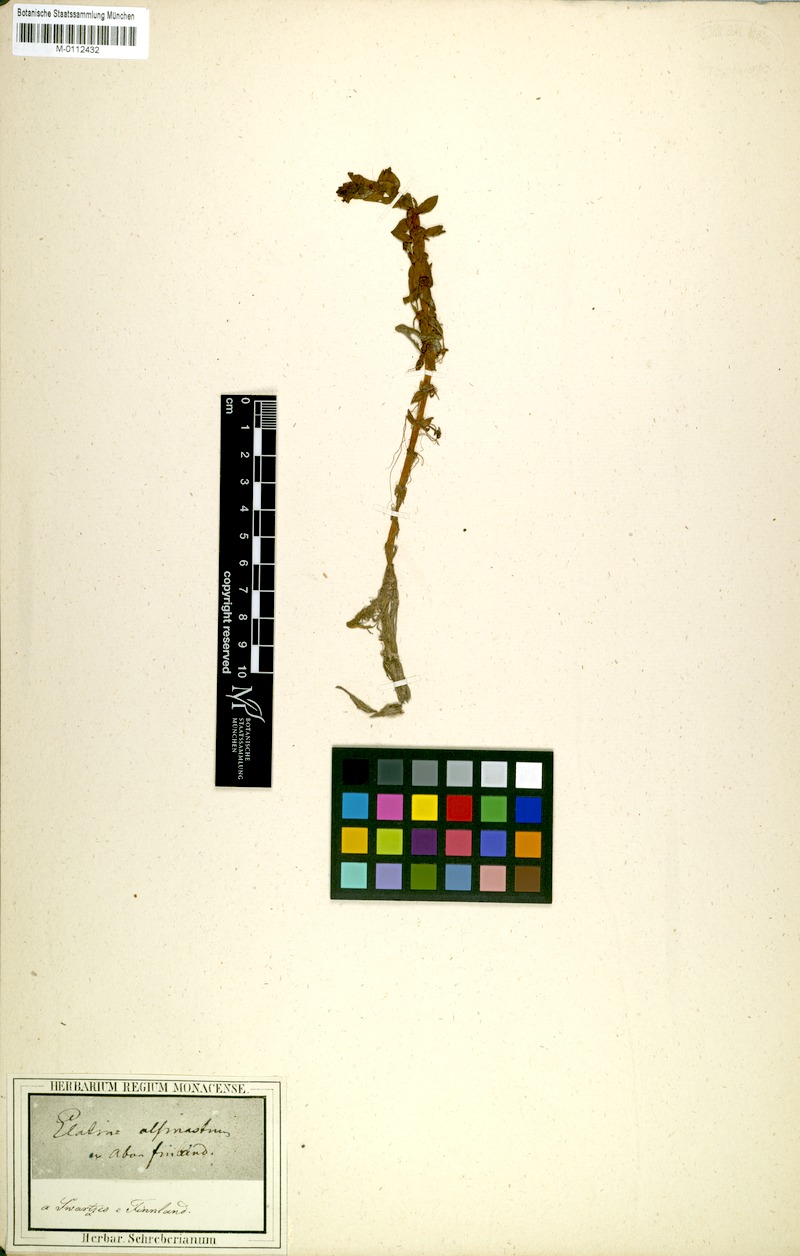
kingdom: Plantae
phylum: Tracheophyta
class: Magnoliopsida
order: Malpighiales
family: Elatinaceae
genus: Elatine
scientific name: Elatine alsinastrum
